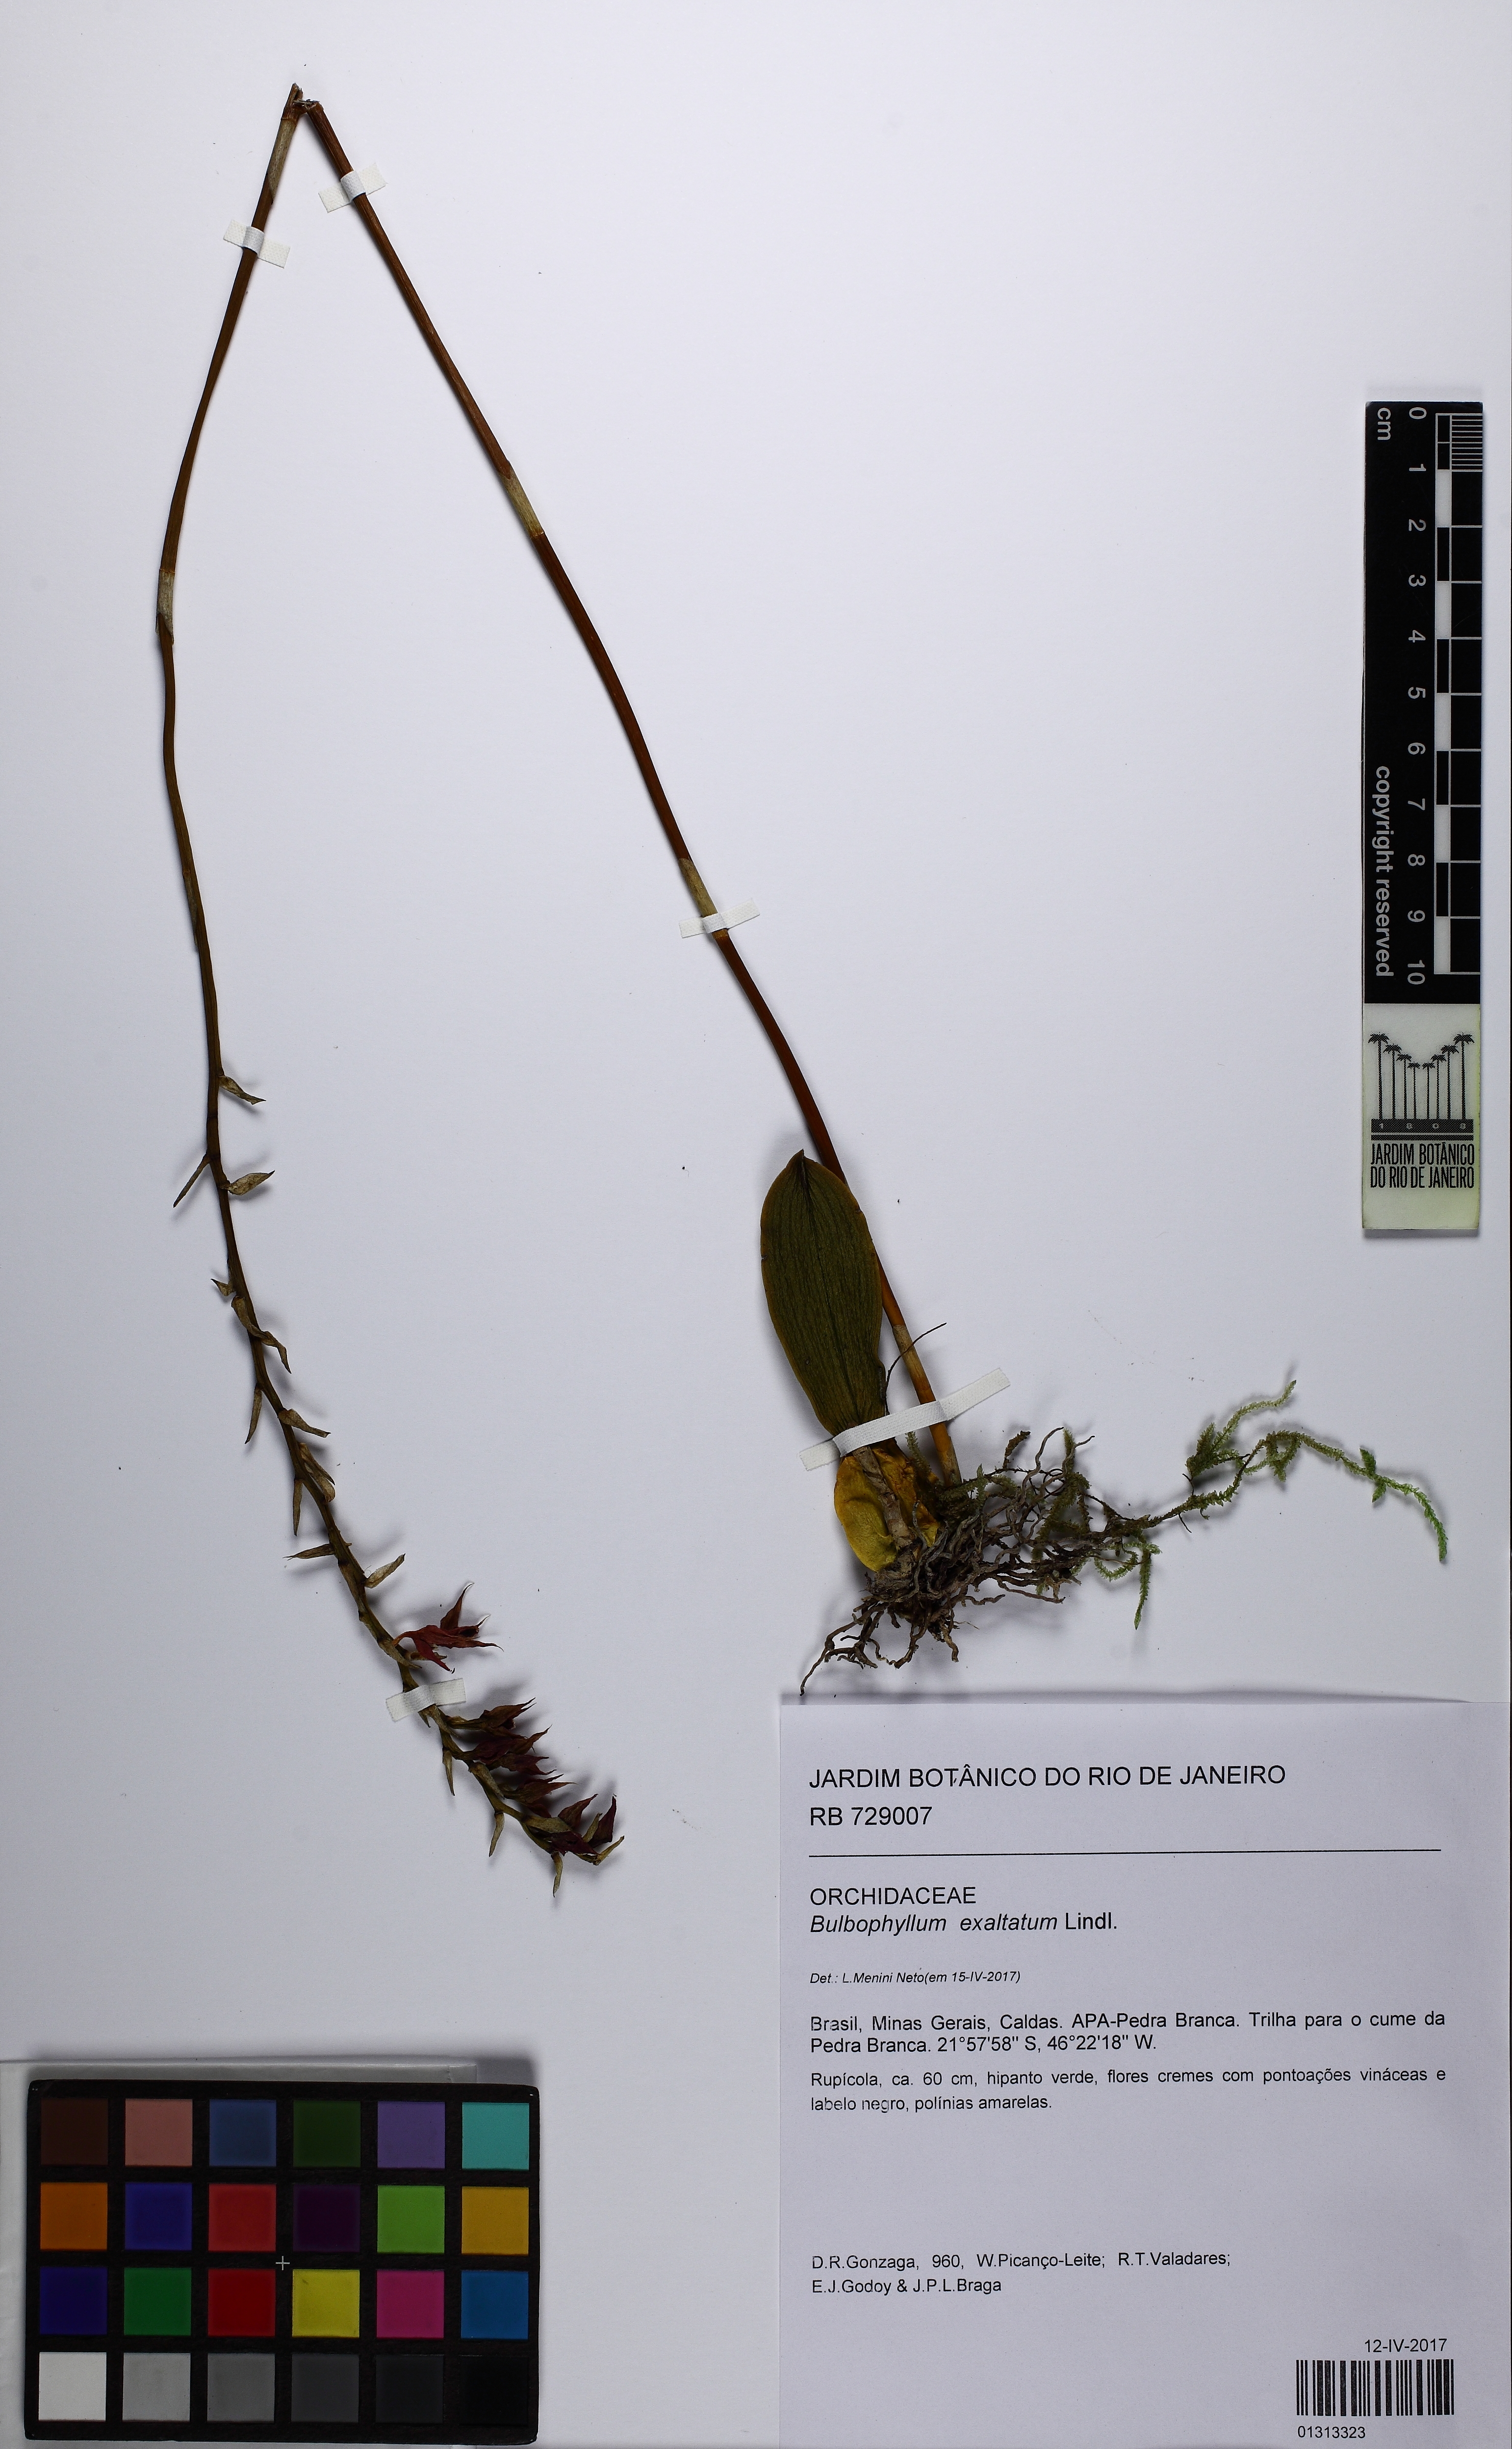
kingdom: Plantae
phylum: Tracheophyta
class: Liliopsida
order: Asparagales
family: Orchidaceae
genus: Bulbophyllum
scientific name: Bulbophyllum exaltatum
